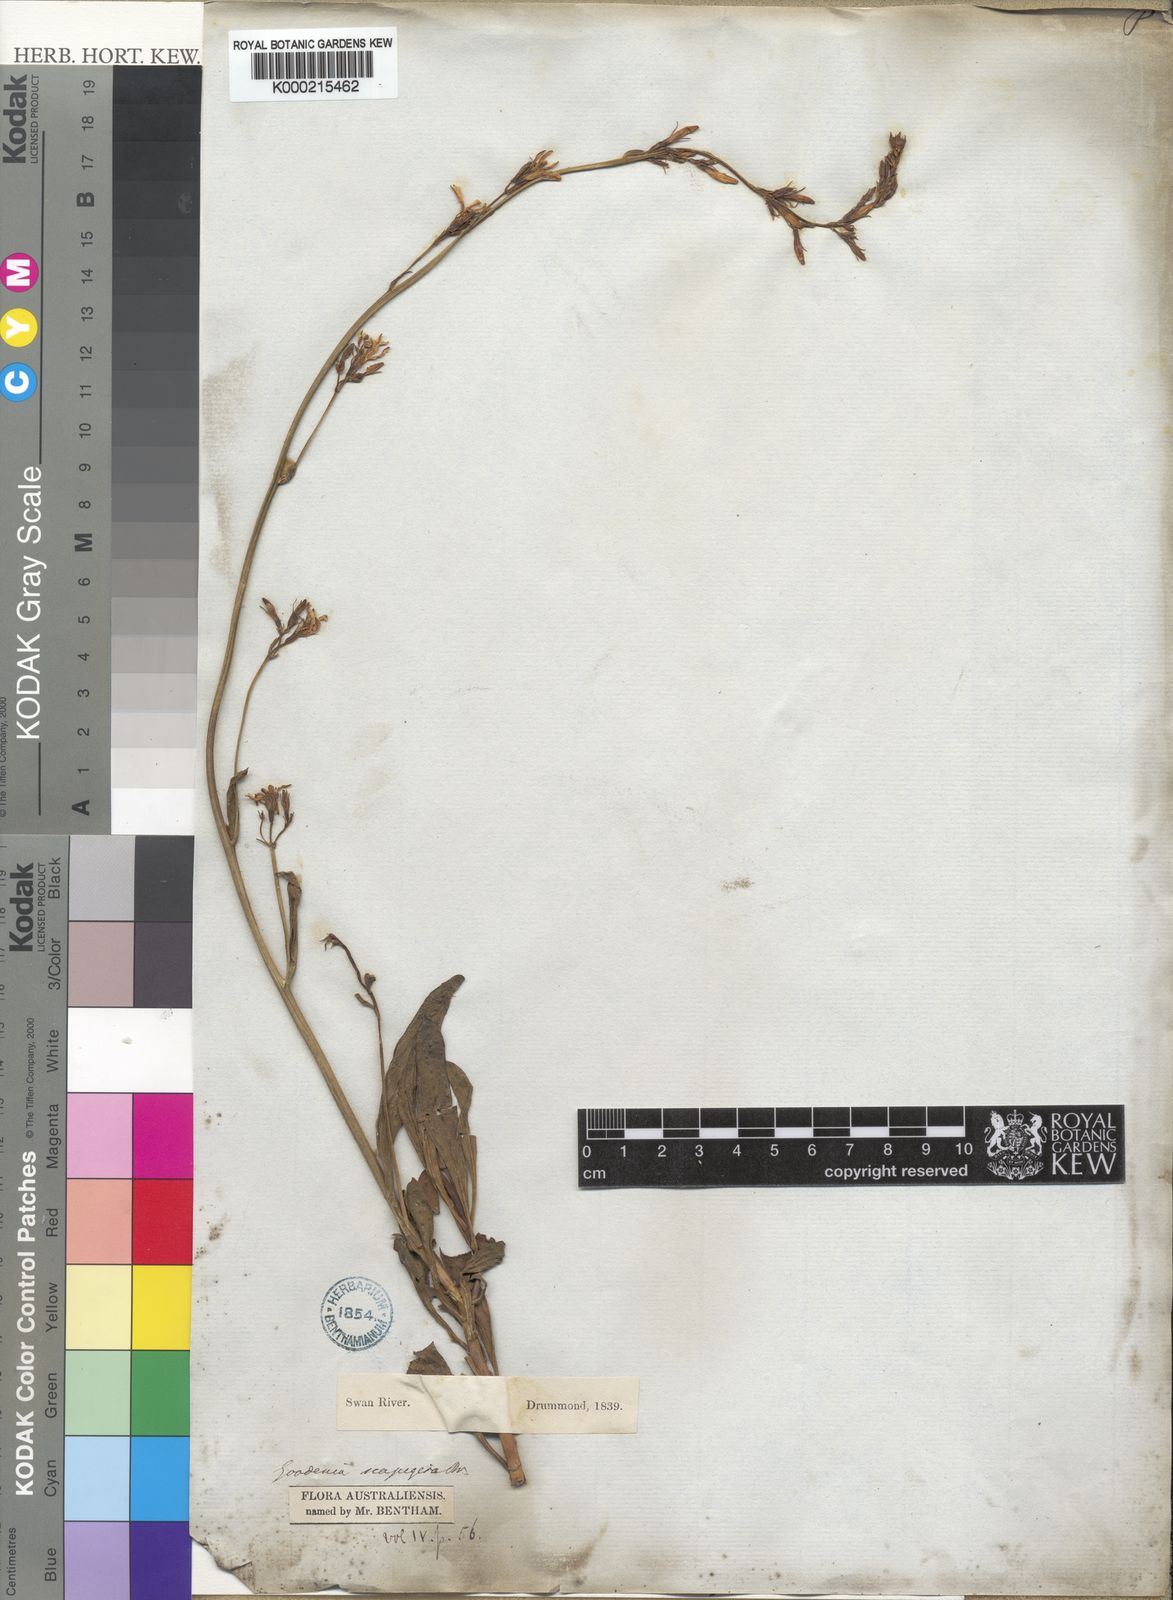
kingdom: Plantae
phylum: Tracheophyta
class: Magnoliopsida
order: Asterales
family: Goodeniaceae
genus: Goodenia
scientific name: Goodenia scapigera
